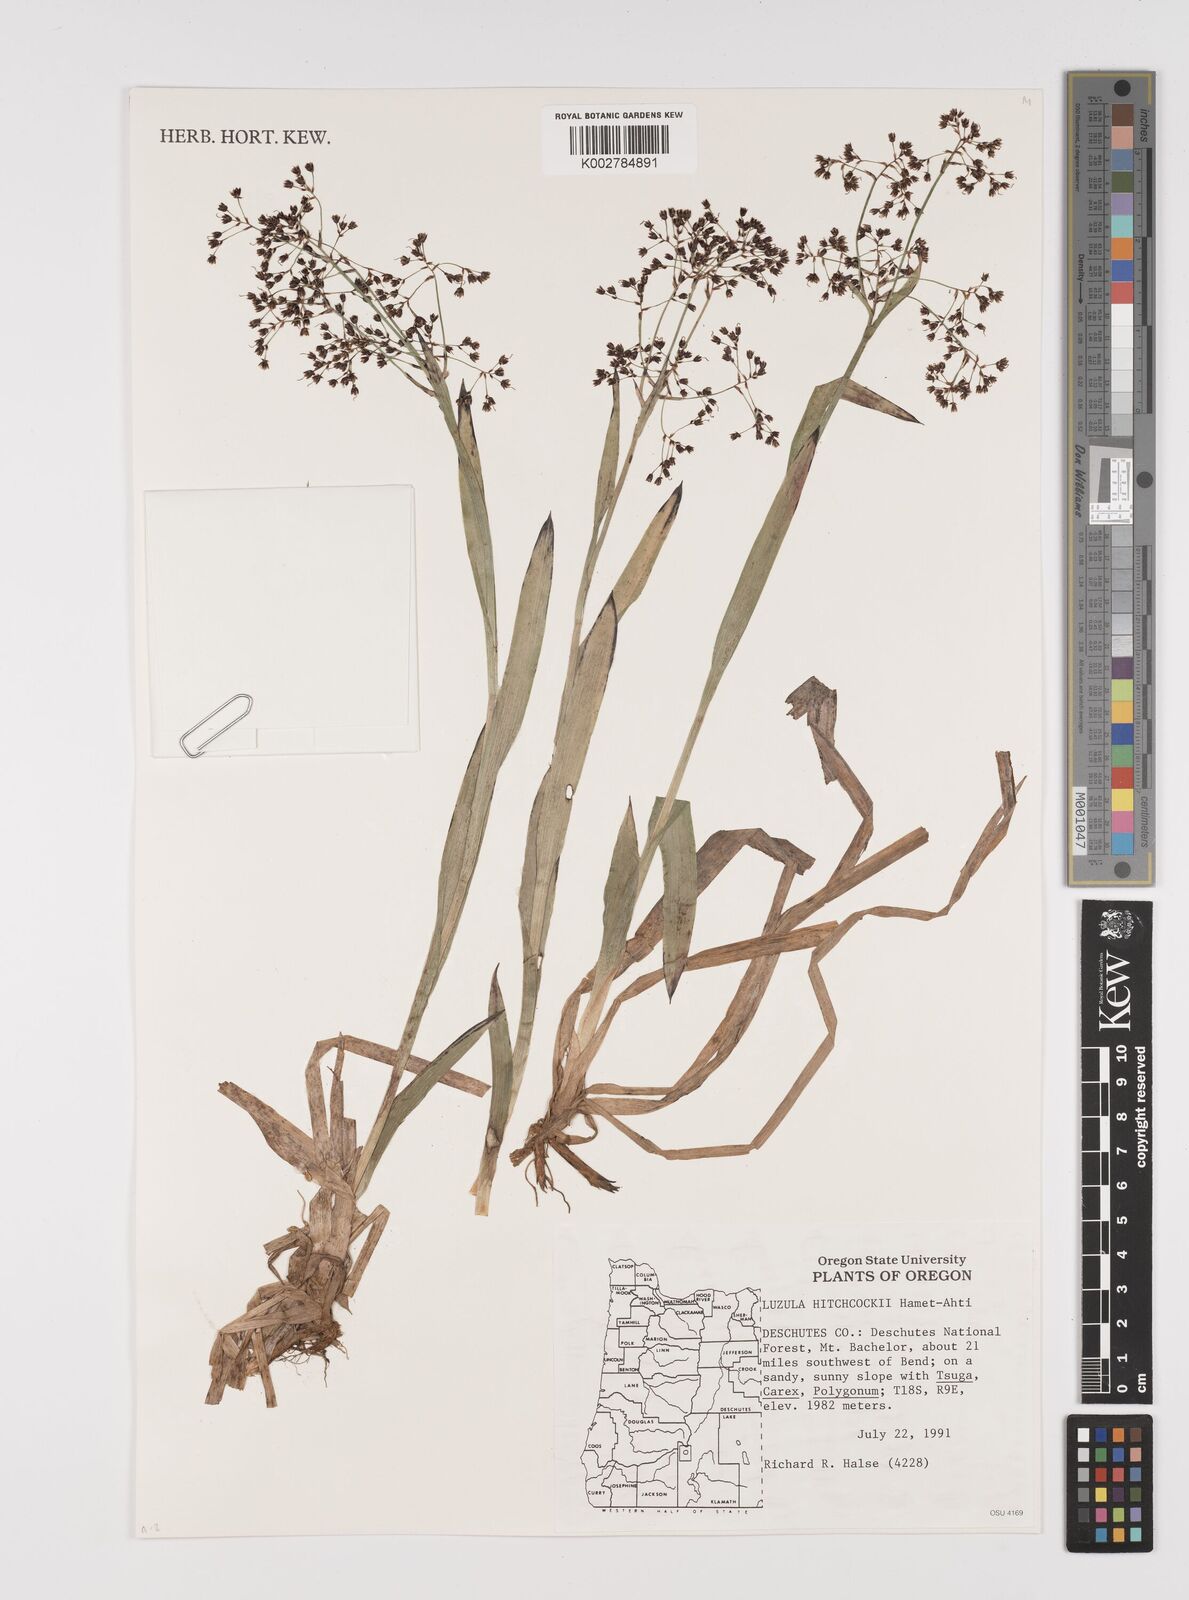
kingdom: Plantae
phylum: Tracheophyta
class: Liliopsida
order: Poales
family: Juncaceae
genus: Luzula
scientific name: Luzula hitchcockii
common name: Hitchcock's smooth woodrush
